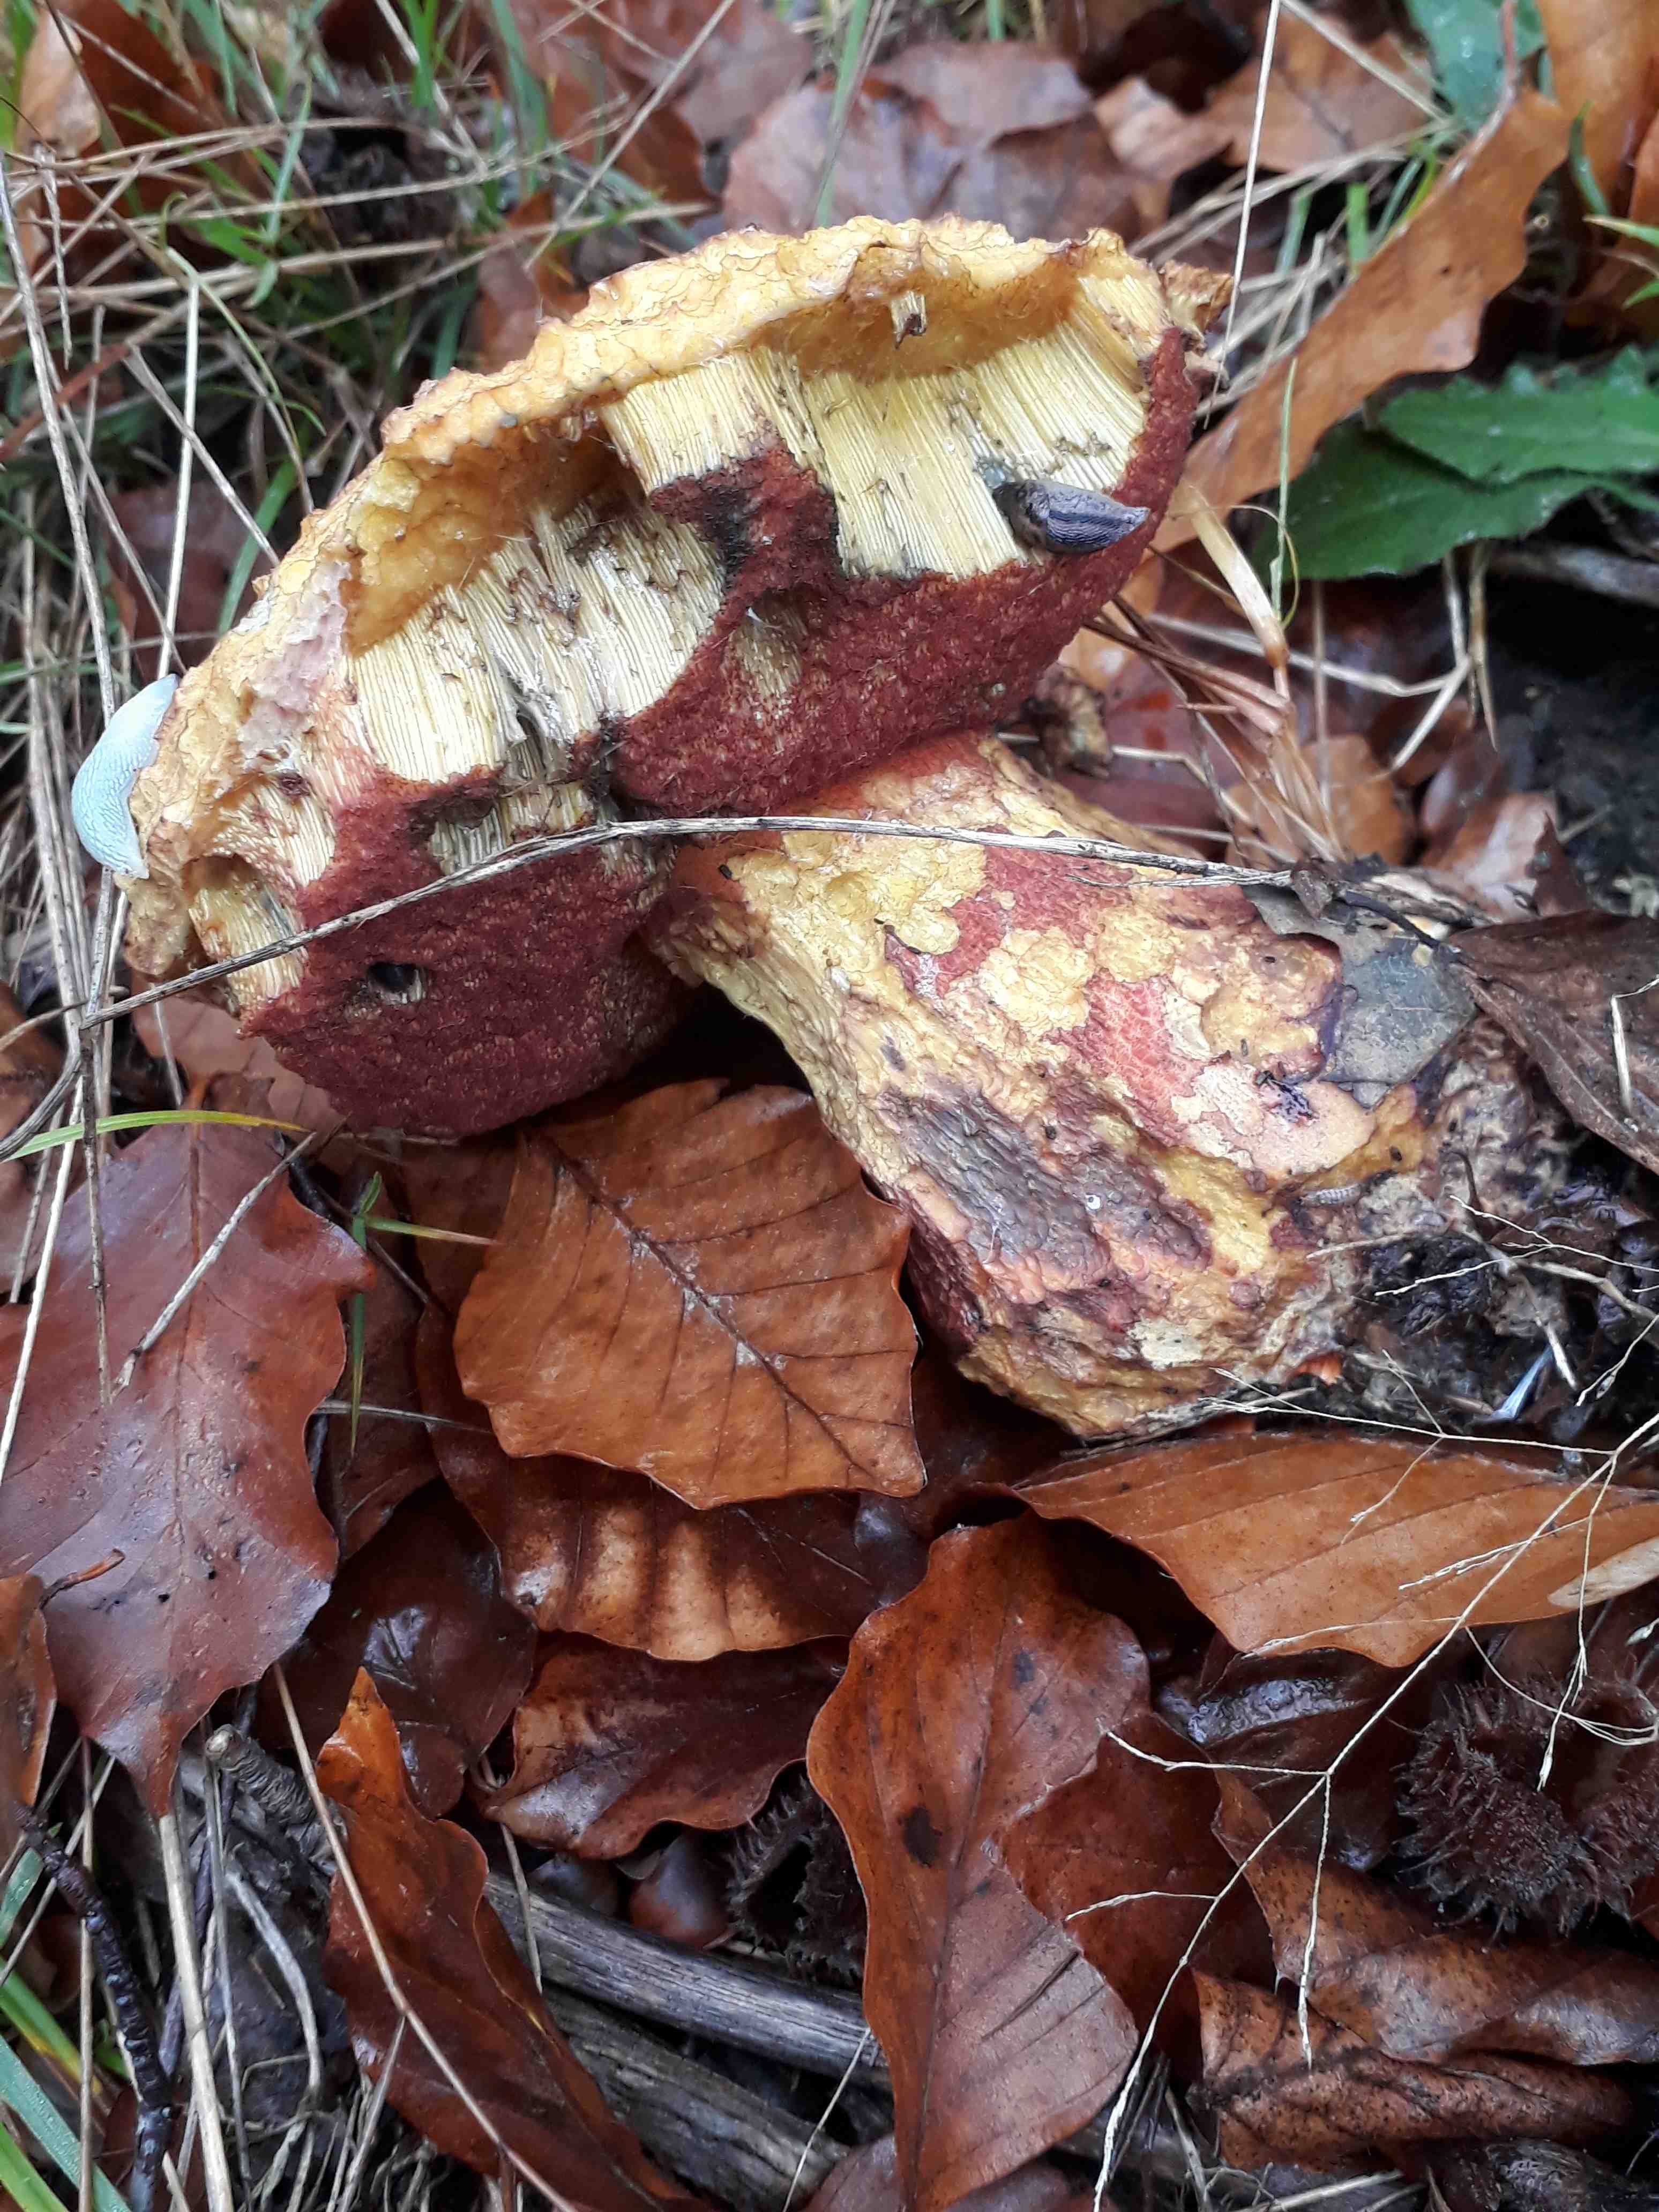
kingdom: Fungi
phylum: Basidiomycota
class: Agaricomycetes
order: Boletales
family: Boletaceae
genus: Neoboletus
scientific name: Neoboletus erythropus
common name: punktstokket indigorørhat
